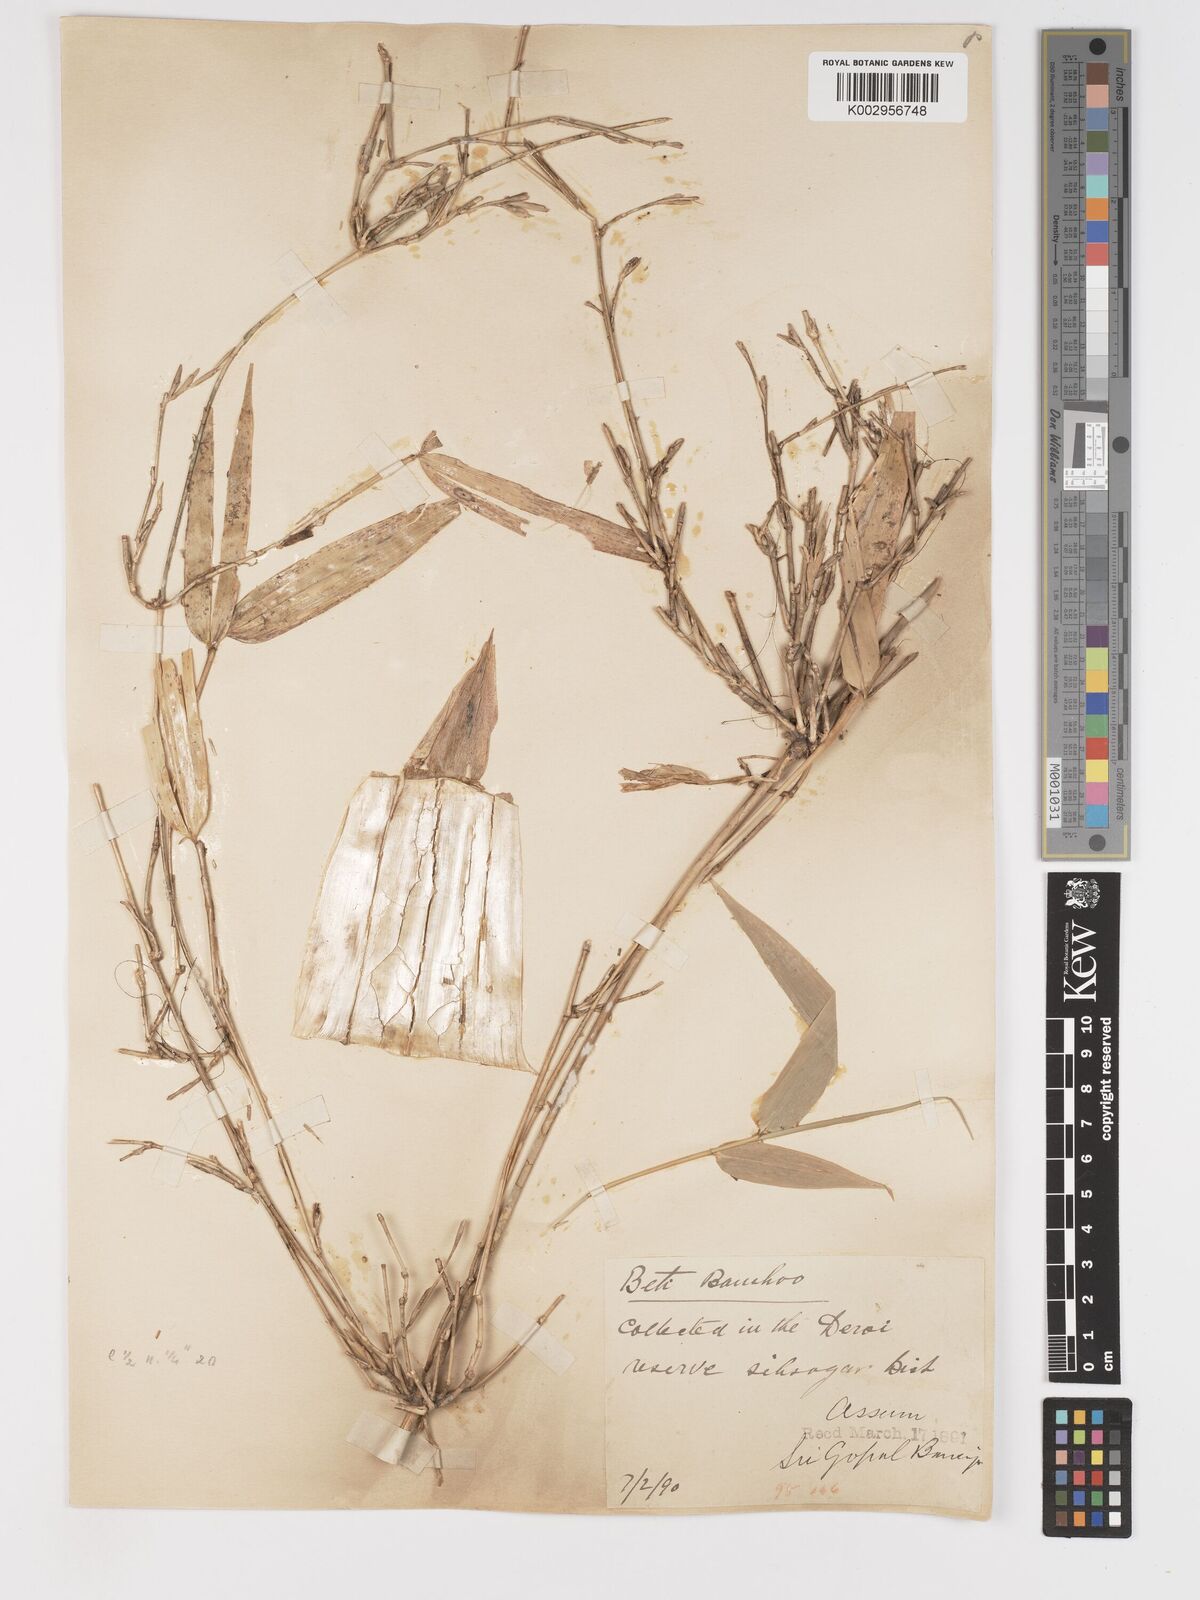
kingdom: Plantae
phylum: Tracheophyta
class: Liliopsida
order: Poales
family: Poaceae
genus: Schizostachyum
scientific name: Schizostachyum griffithii
